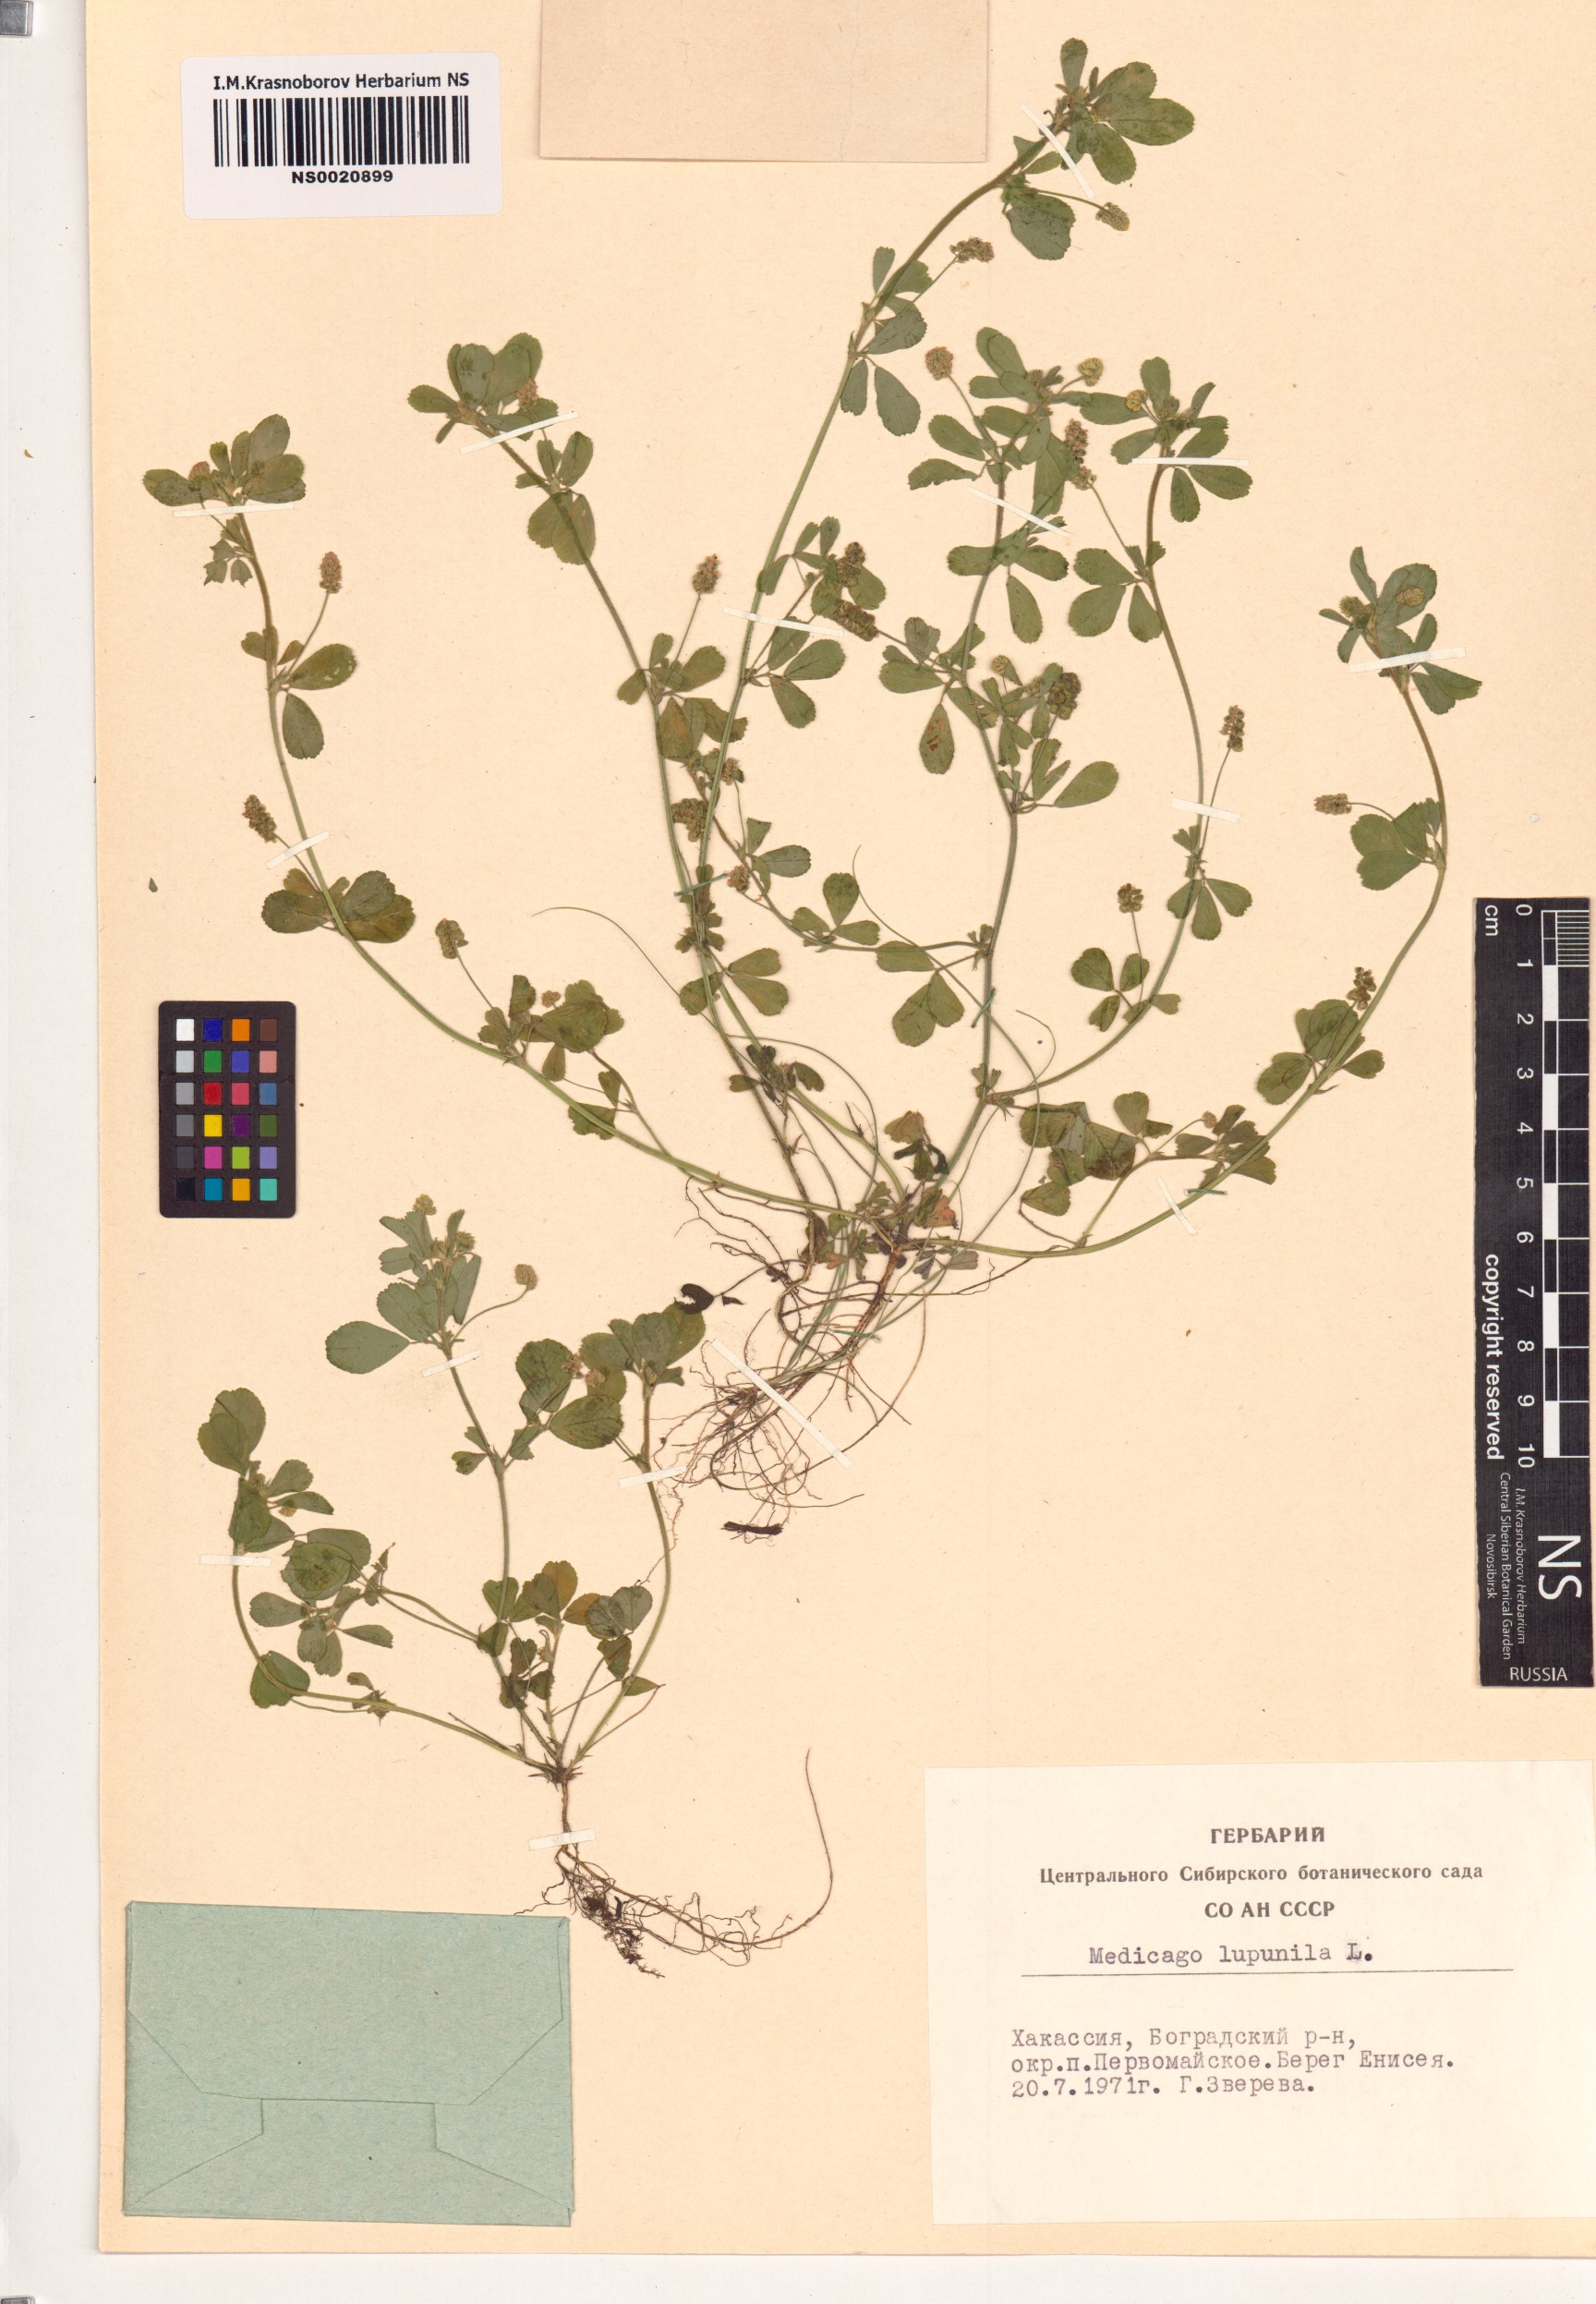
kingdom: Plantae
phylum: Tracheophyta
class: Magnoliopsida
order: Fabales
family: Fabaceae
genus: Medicago
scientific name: Medicago lupulina
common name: Black medick
